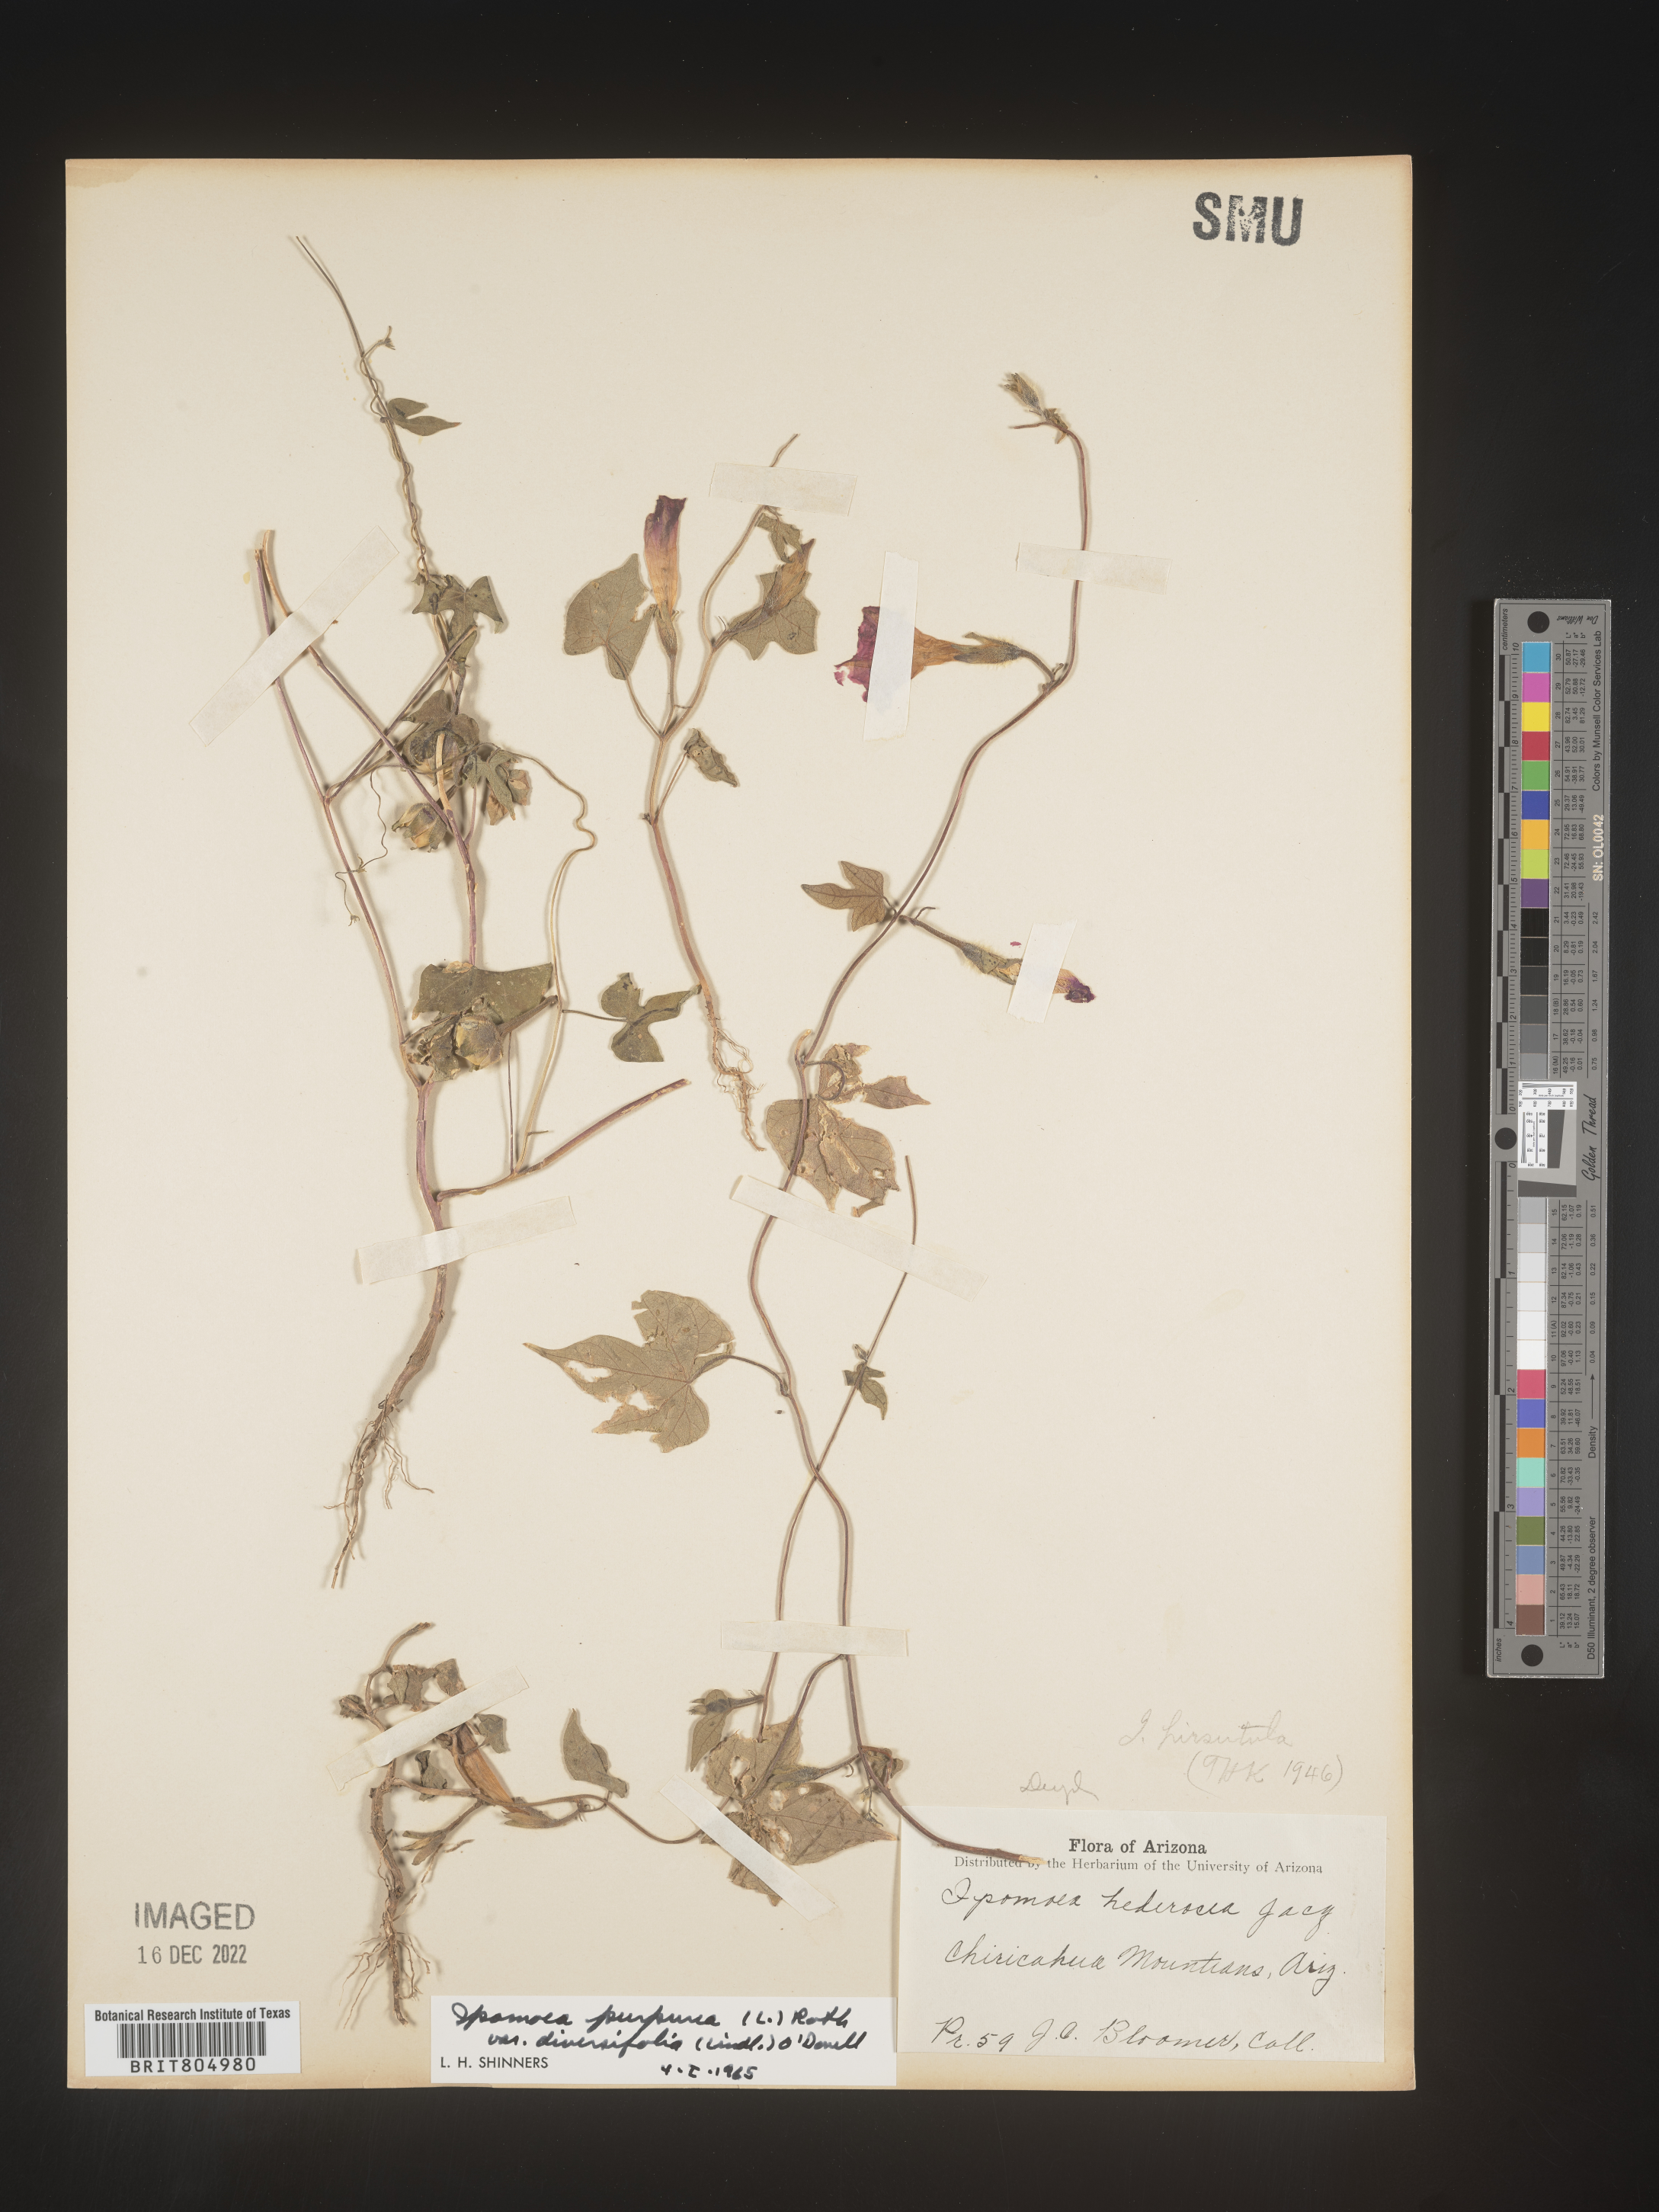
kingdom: Plantae
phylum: Tracheophyta
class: Magnoliopsida
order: Solanales
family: Convolvulaceae
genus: Ipomoea
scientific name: Ipomoea purpurea
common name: Common morning-glory
